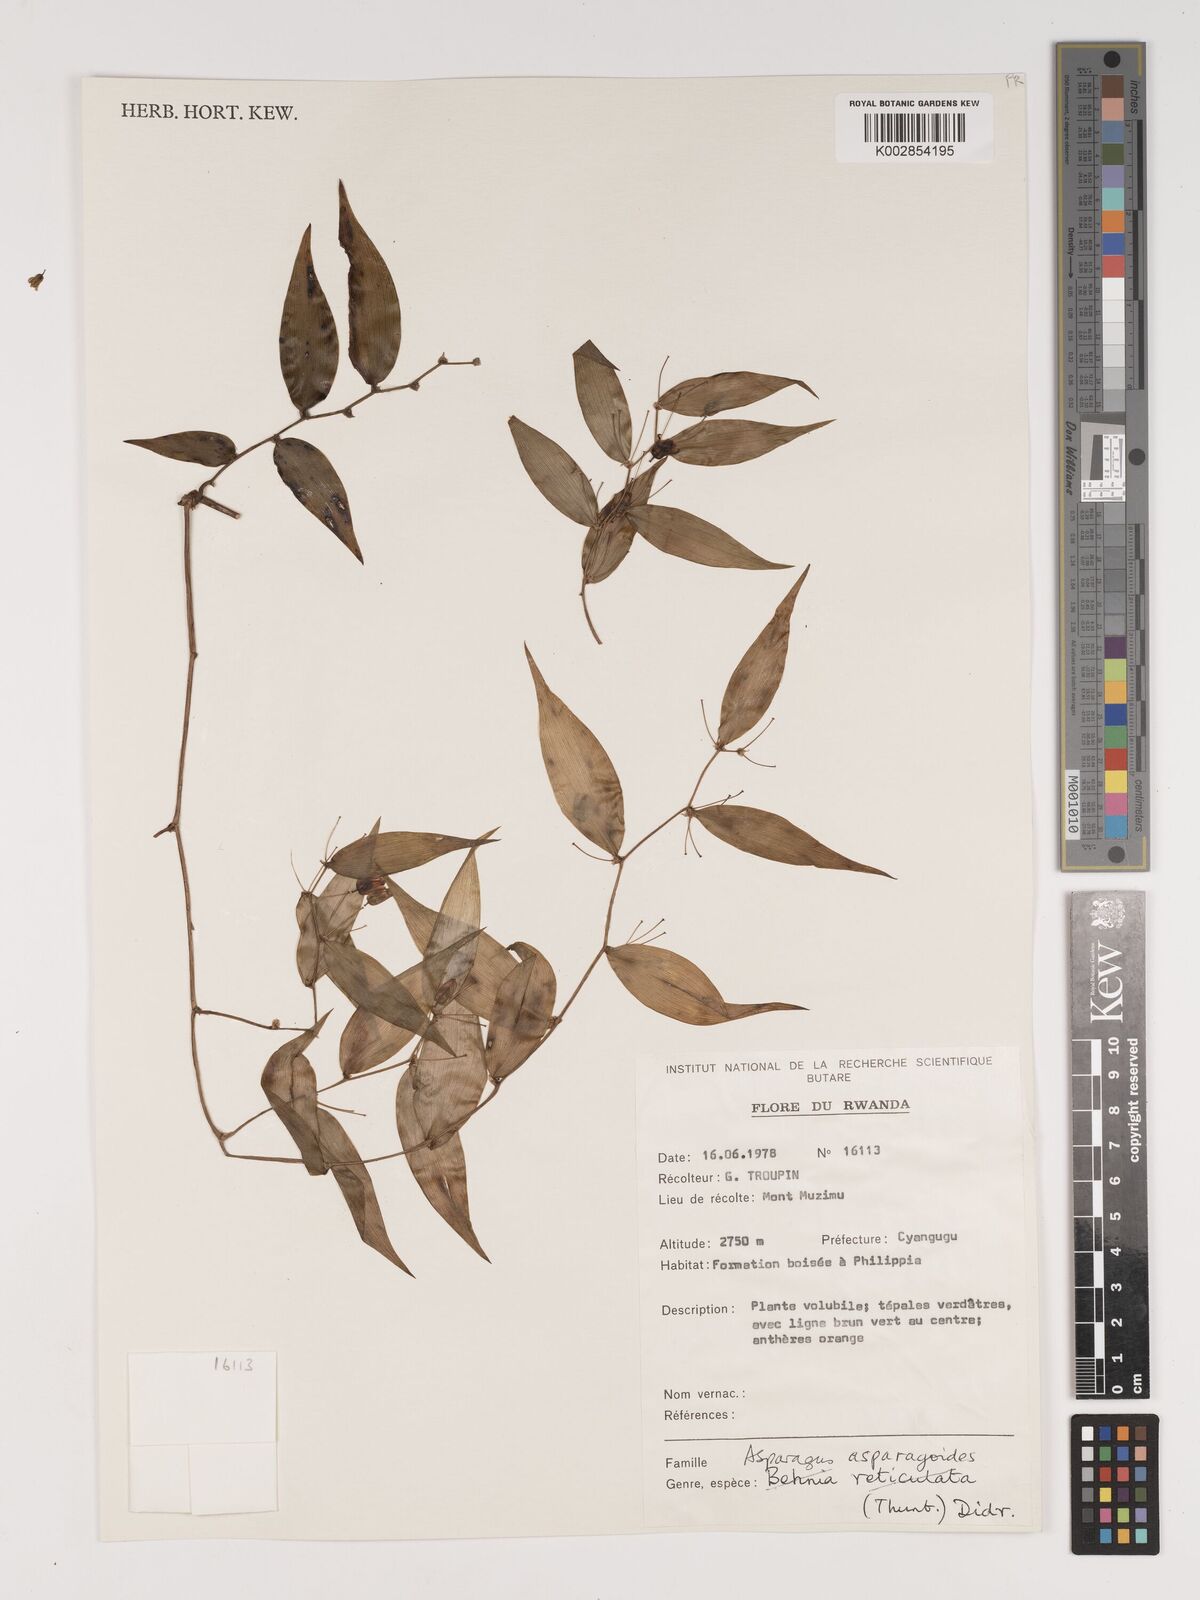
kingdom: Plantae
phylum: Tracheophyta
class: Liliopsida
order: Asparagales
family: Asparagaceae
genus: Asparagus
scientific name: Asparagus asparagoides
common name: African asparagus fern
